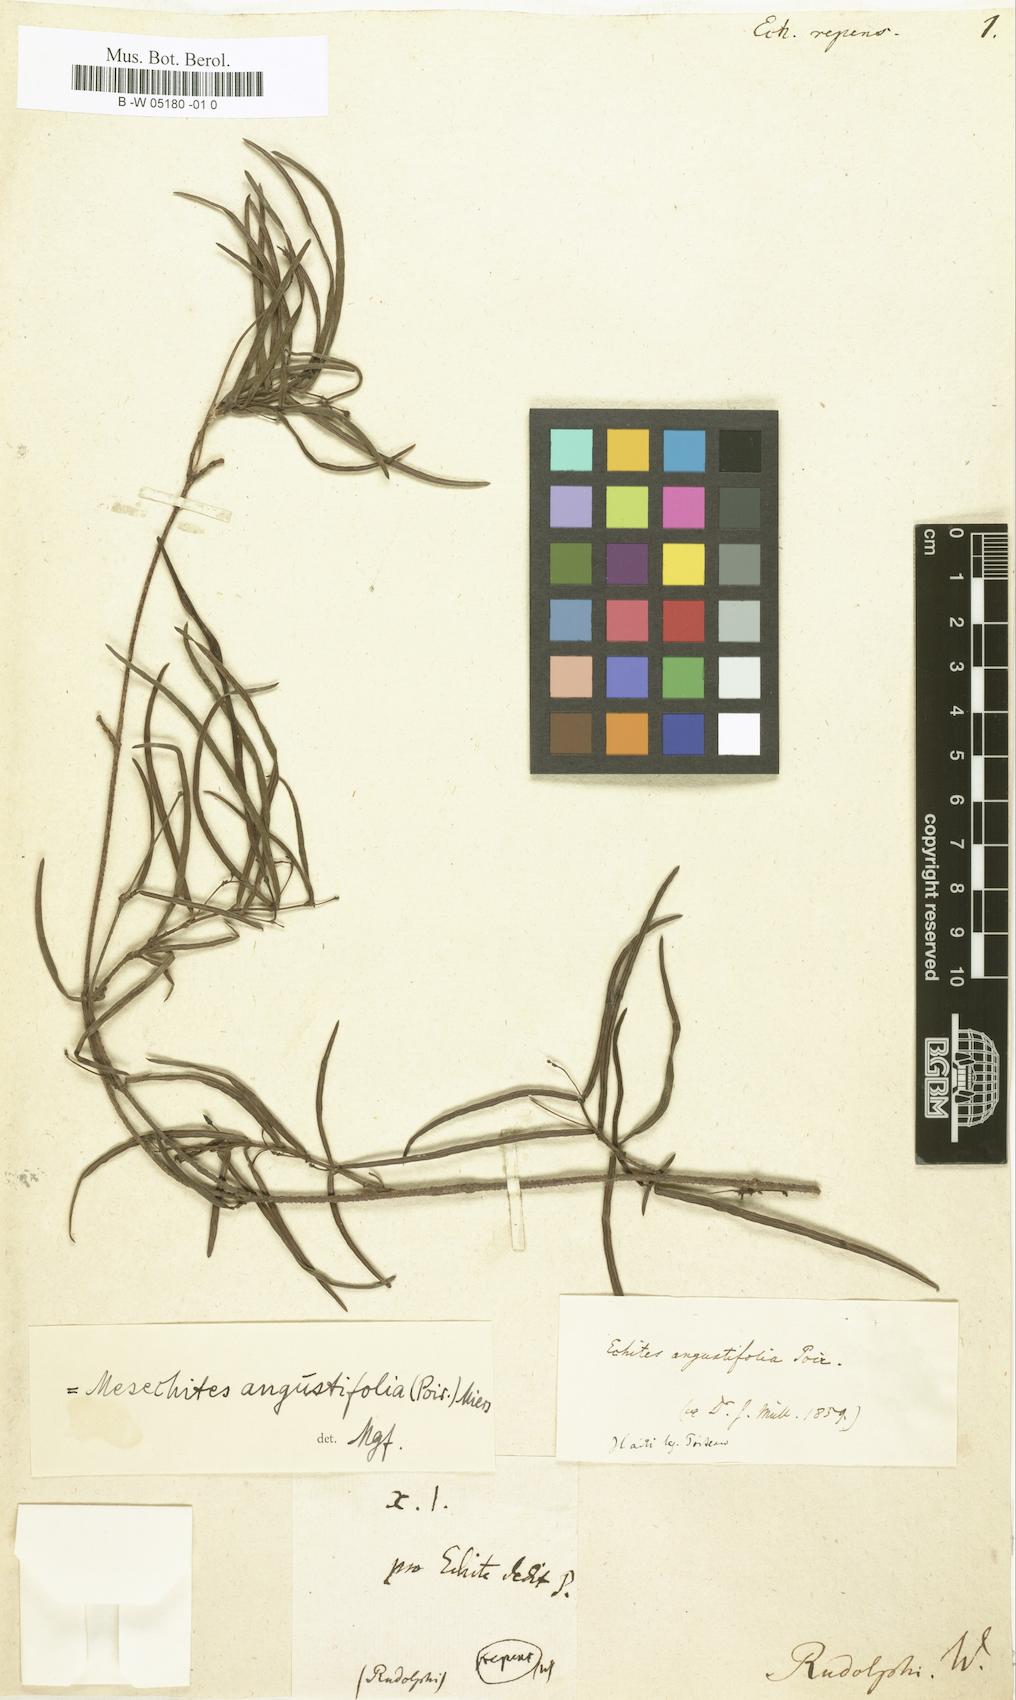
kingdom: Plantae
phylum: Tracheophyta
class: Magnoliopsida
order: Gentianales
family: Apocynaceae
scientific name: Apocynaceae
